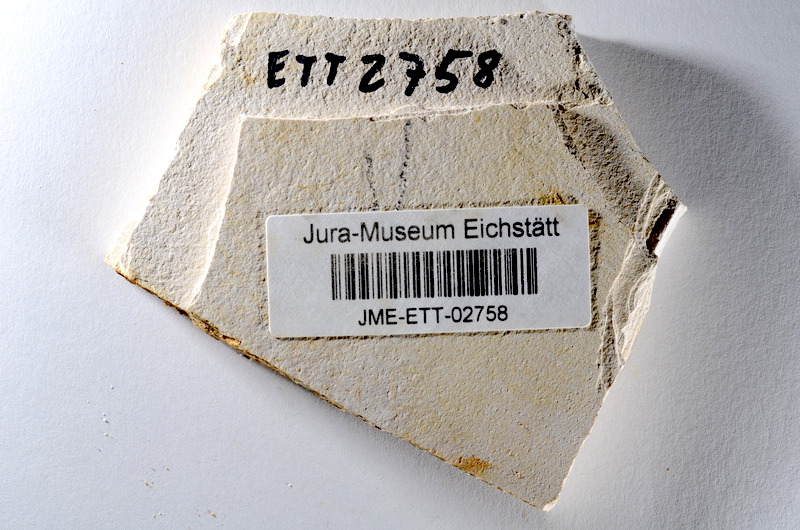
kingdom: Animalia
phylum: Chordata
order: Salmoniformes
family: Orthogonikleithridae
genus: Orthogonikleithrus
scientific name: Orthogonikleithrus hoelli
